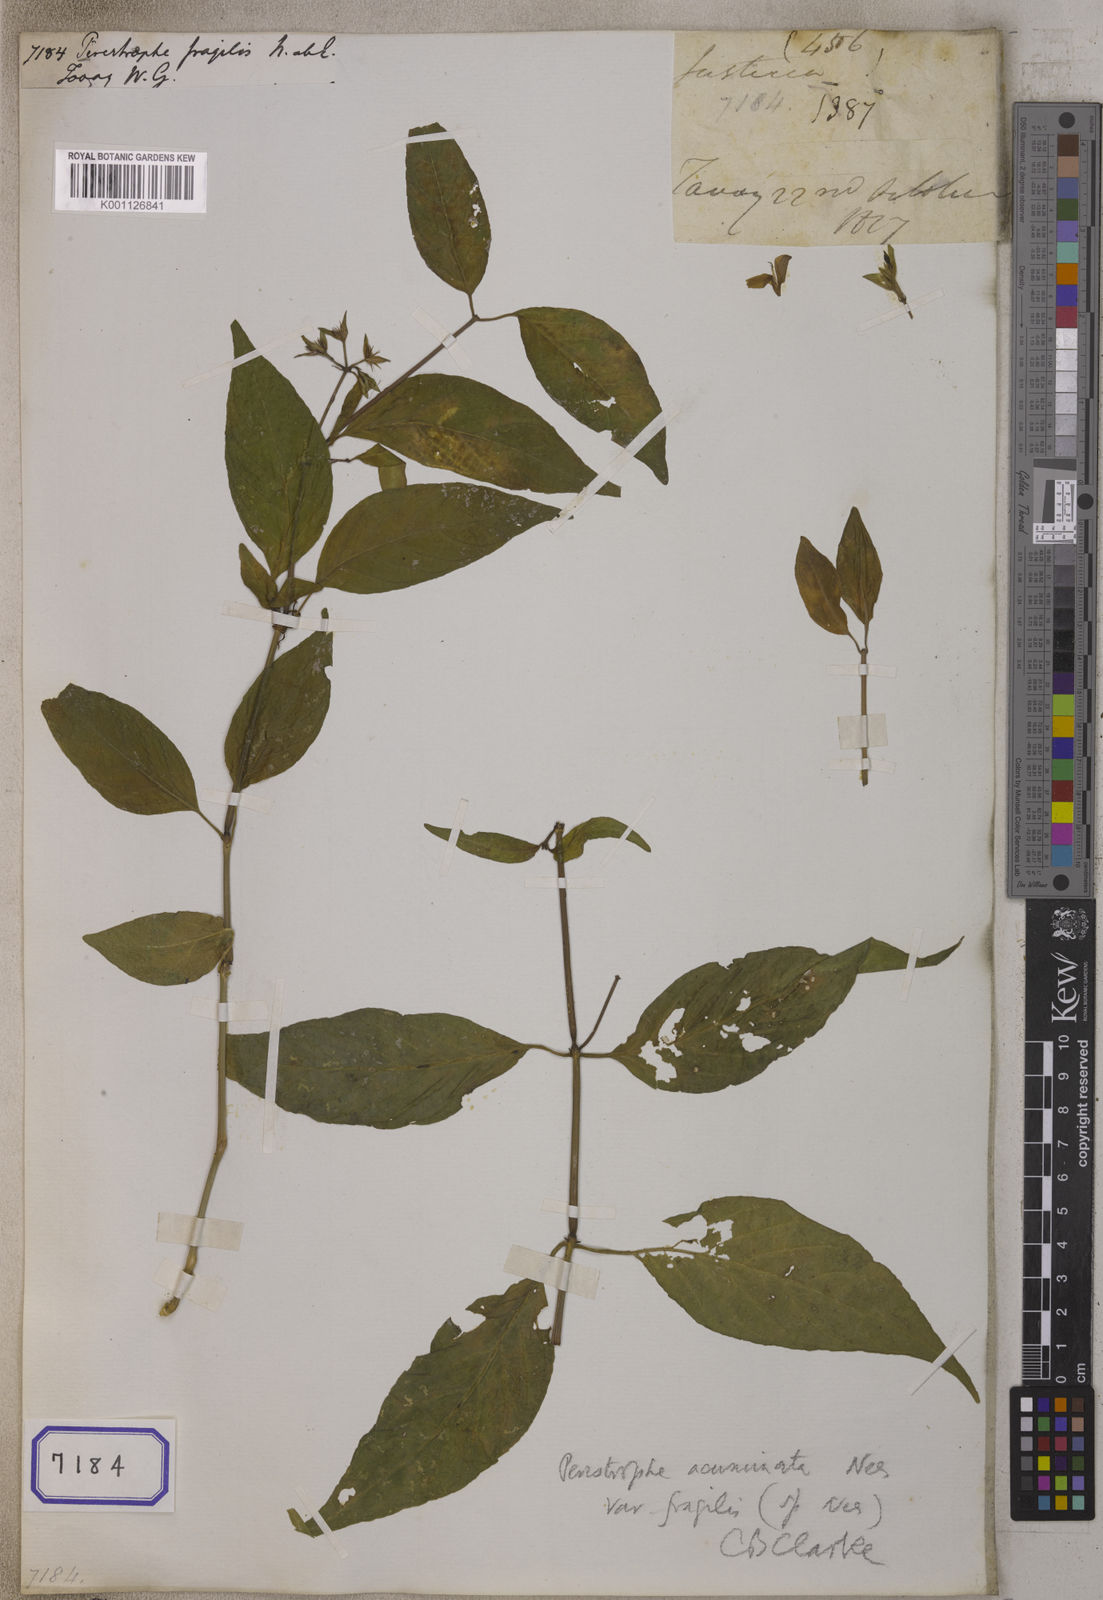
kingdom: Plantae
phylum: Tracheophyta
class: Magnoliopsida
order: Lamiales
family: Acanthaceae
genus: Dicliptera
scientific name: Dicliptera sebastinei
